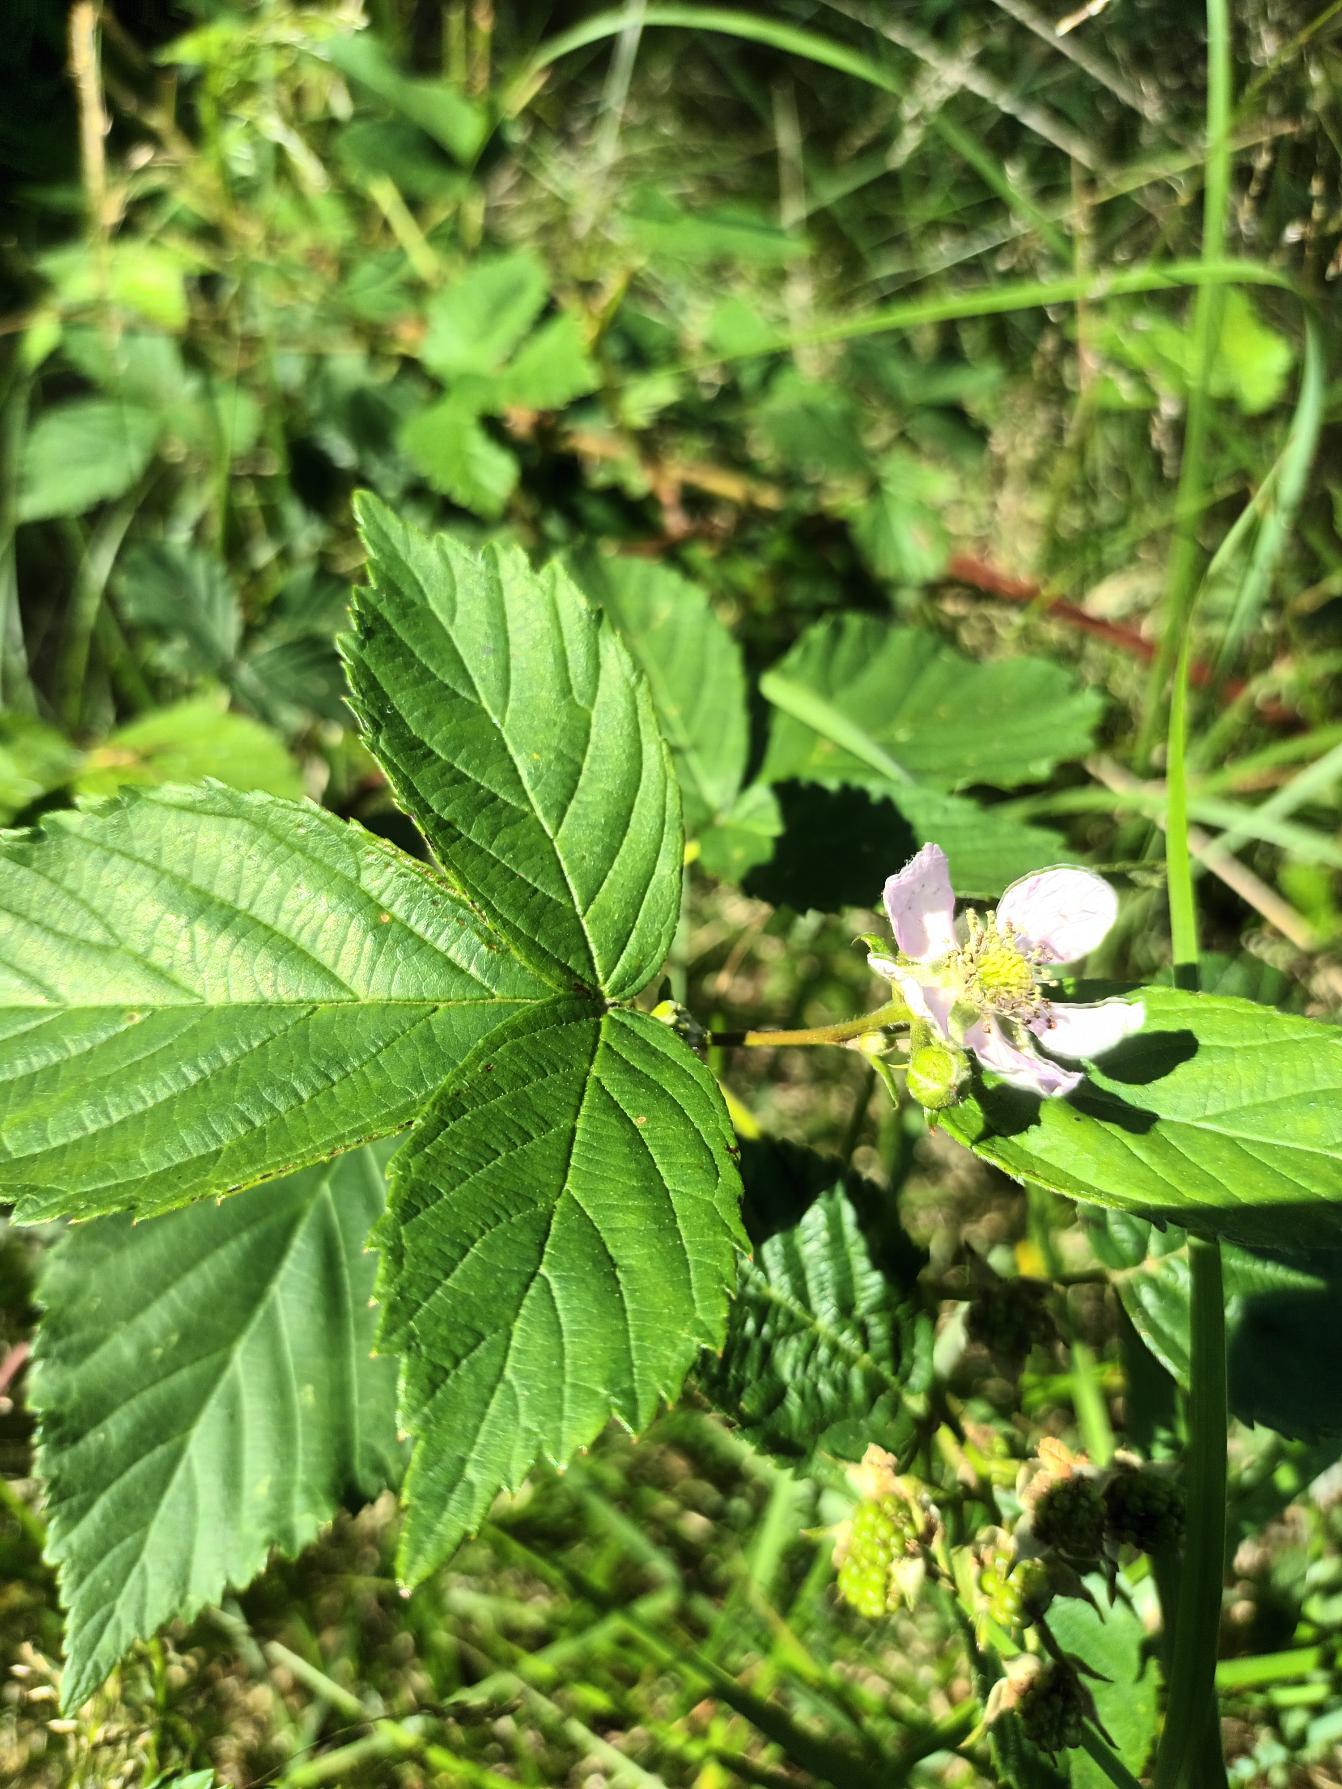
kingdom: Plantae
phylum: Tracheophyta
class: Magnoliopsida
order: Rosales
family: Rosaceae
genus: Rubus
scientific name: Rubus plicatus
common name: Almindelig brombær
